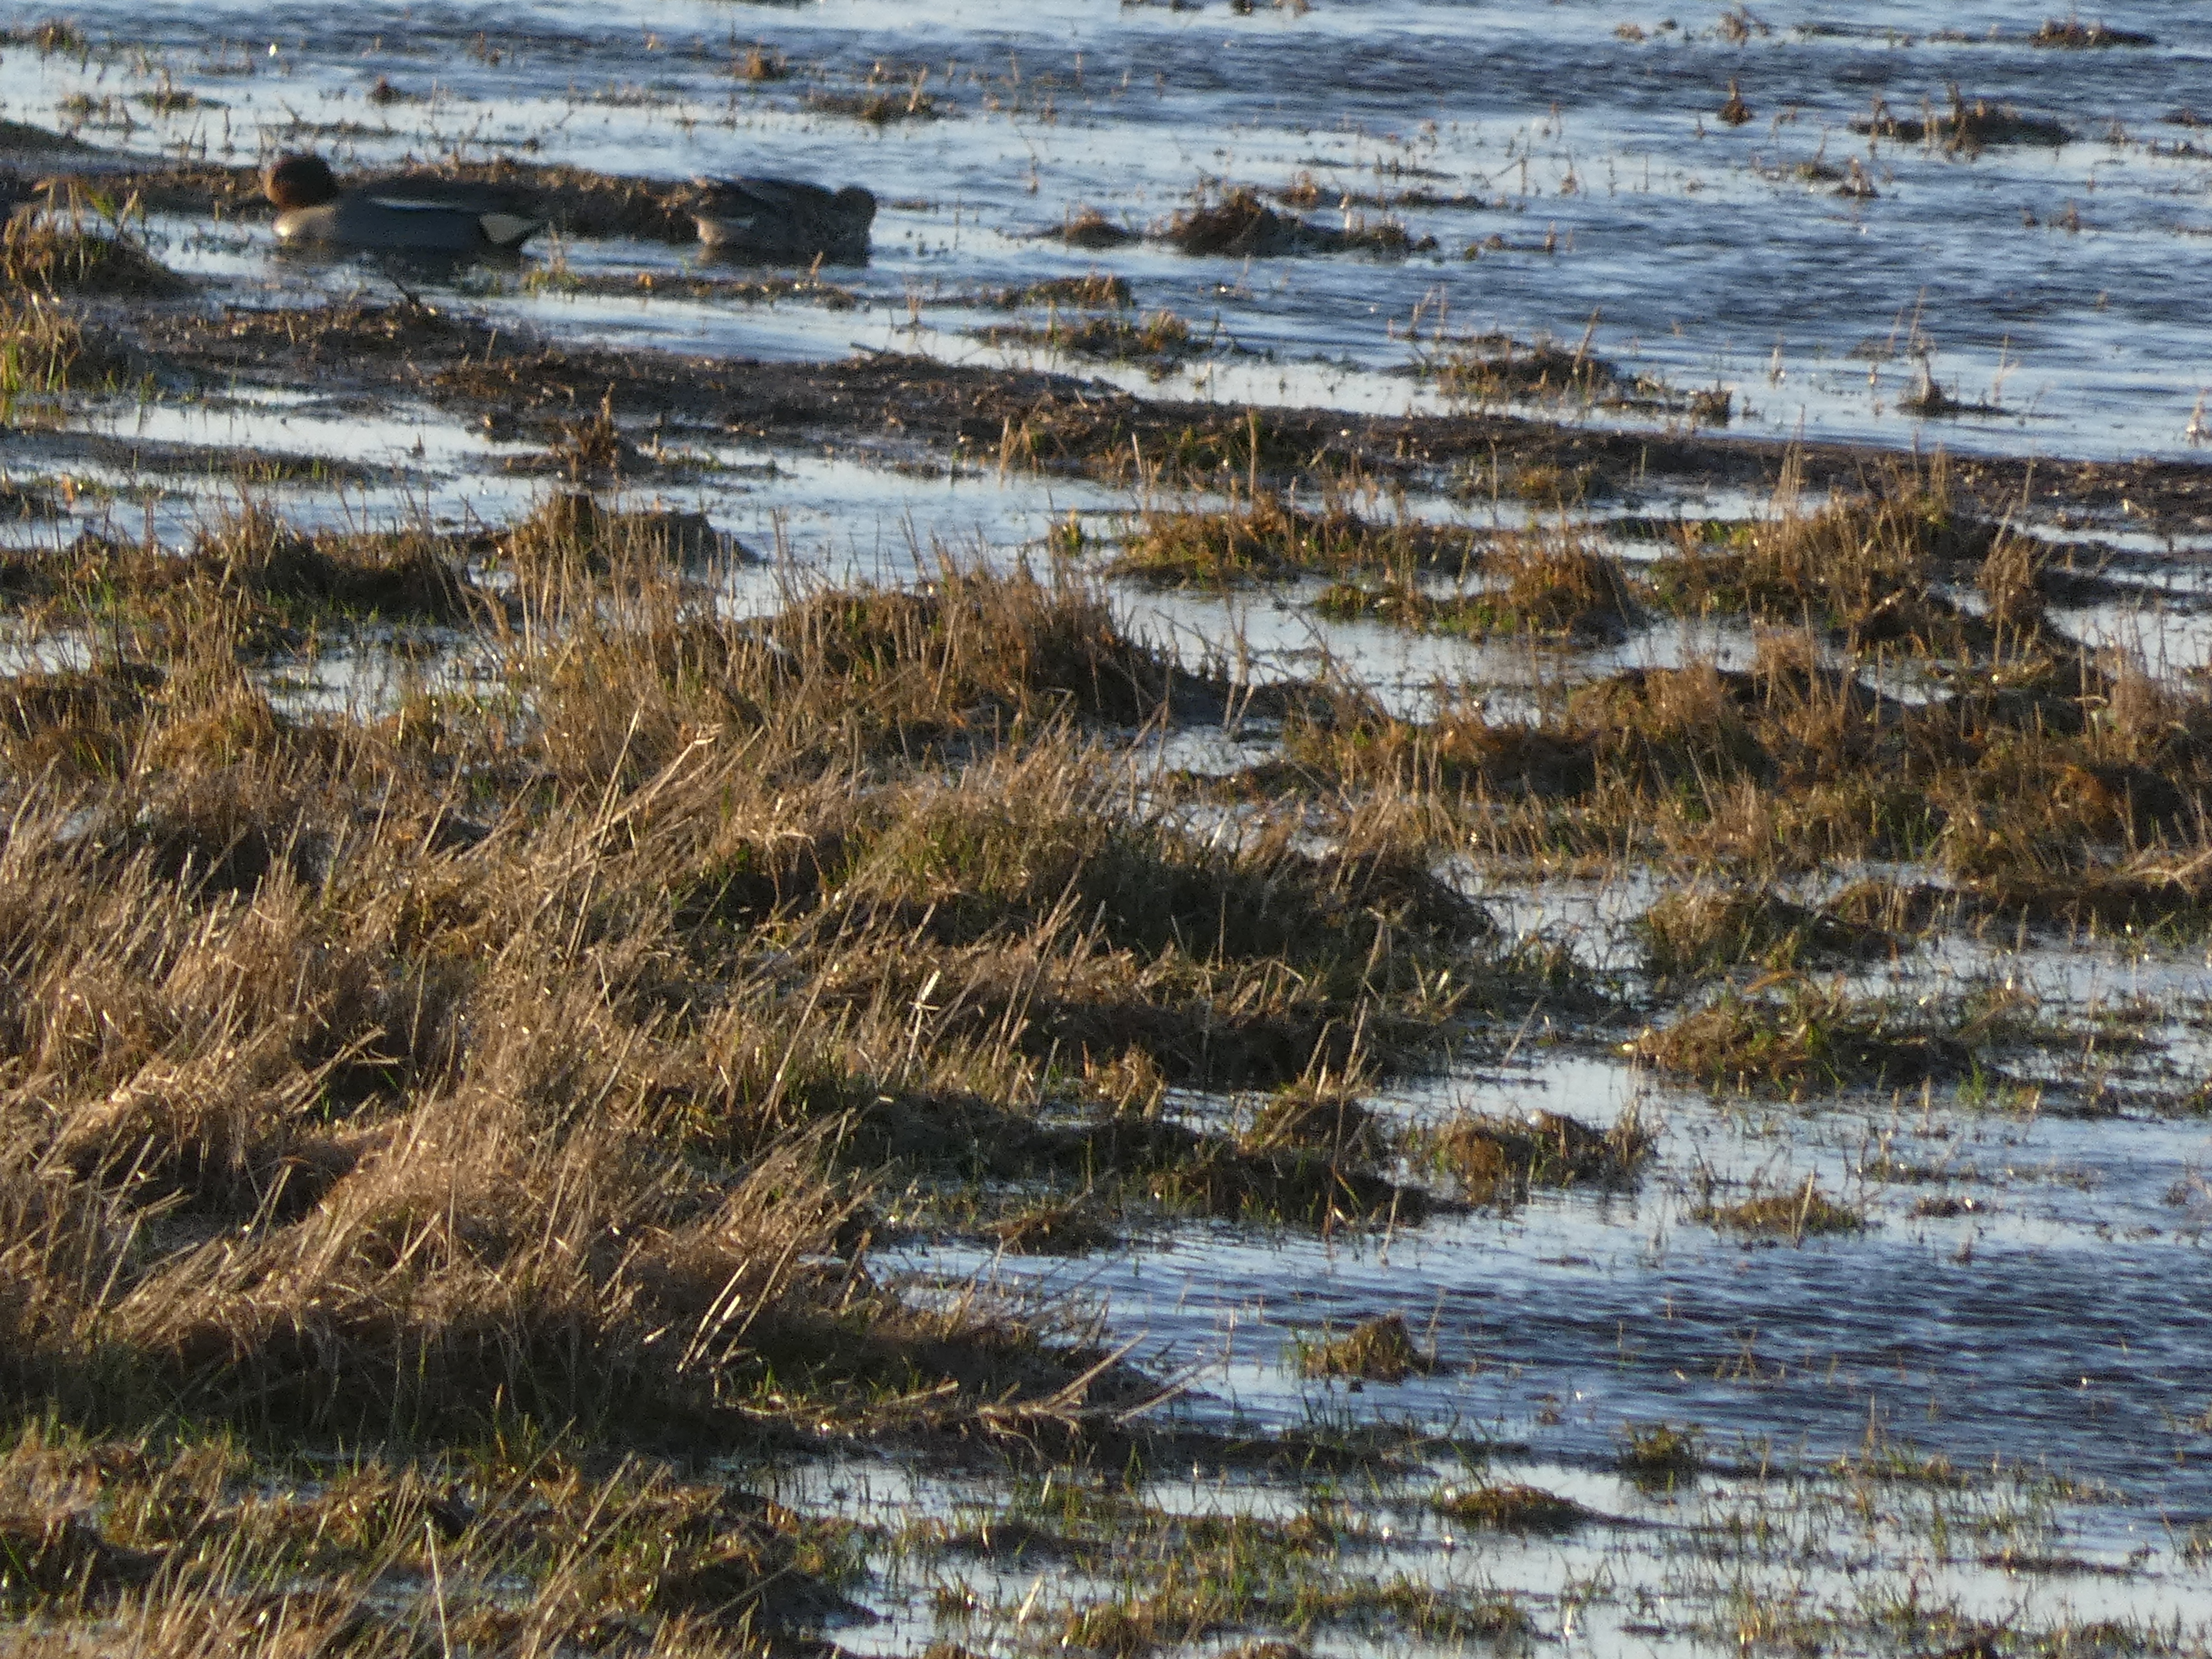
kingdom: Animalia
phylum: Chordata
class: Aves
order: Anseriformes
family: Anatidae
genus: Anas
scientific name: Anas crecca
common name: Krikand
